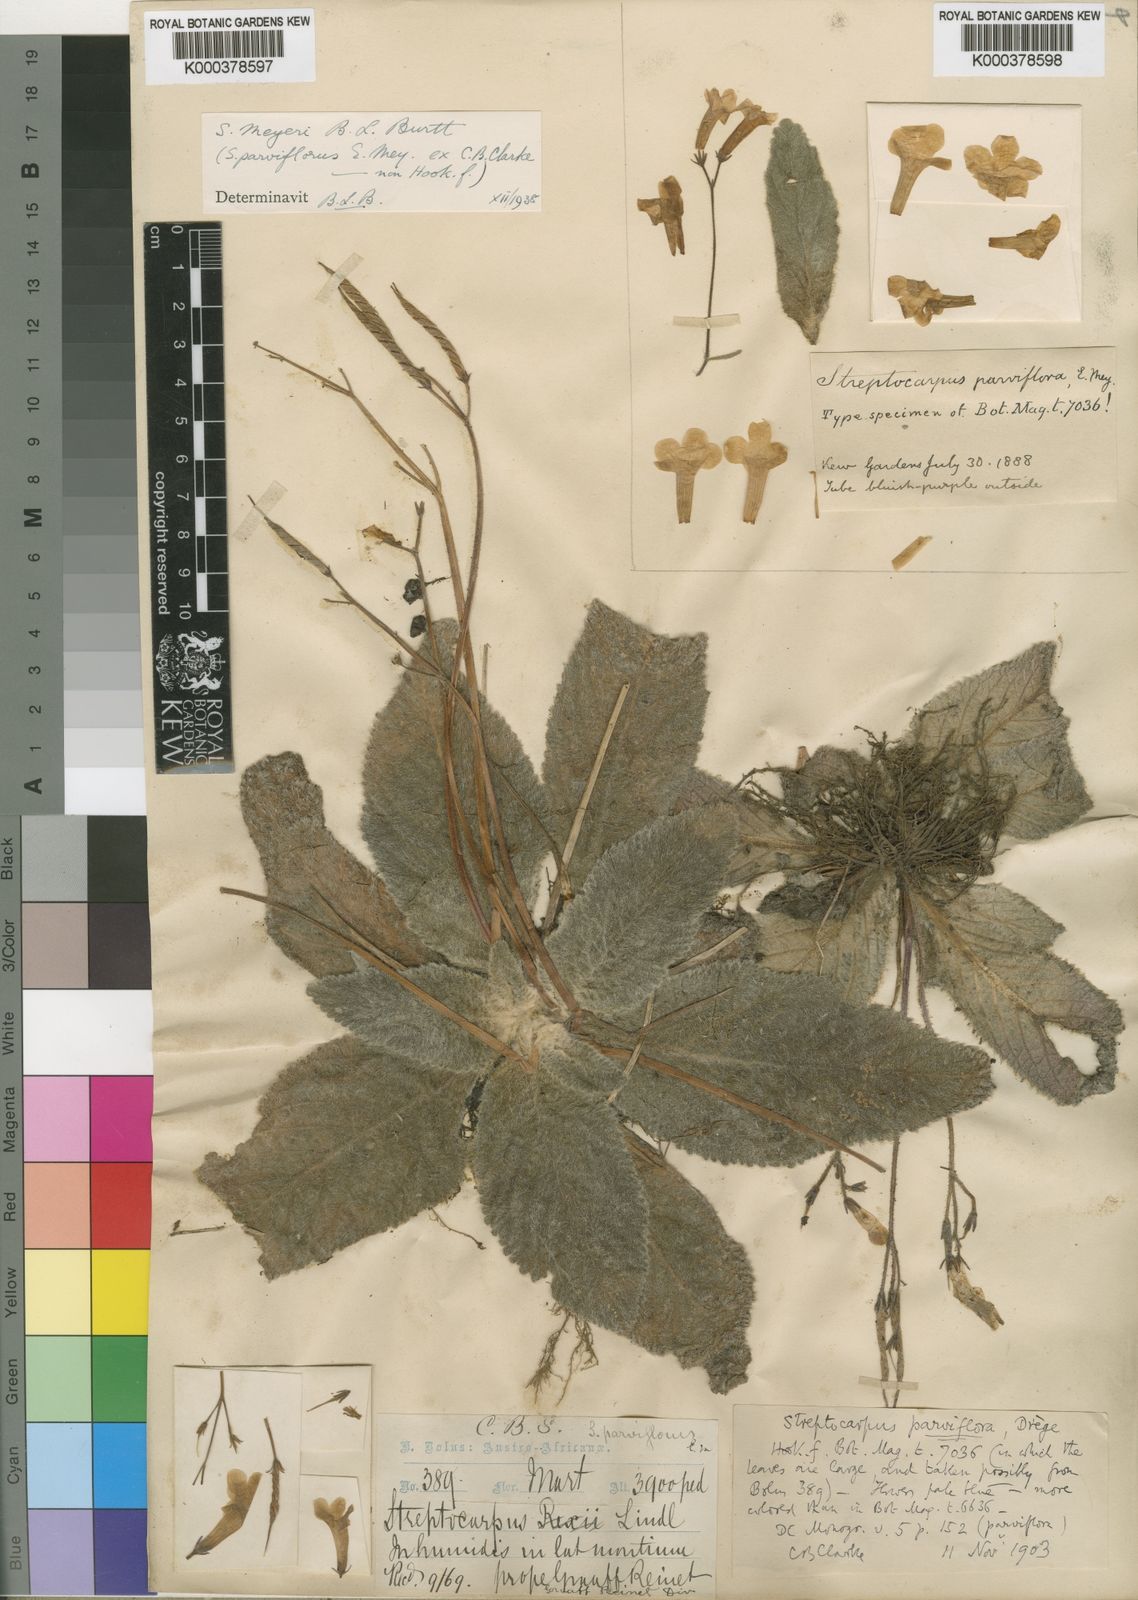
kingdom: Plantae
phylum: Tracheophyta
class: Magnoliopsida
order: Lamiales
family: Gesneriaceae
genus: Streptocarpus
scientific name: Streptocarpus meyeri
